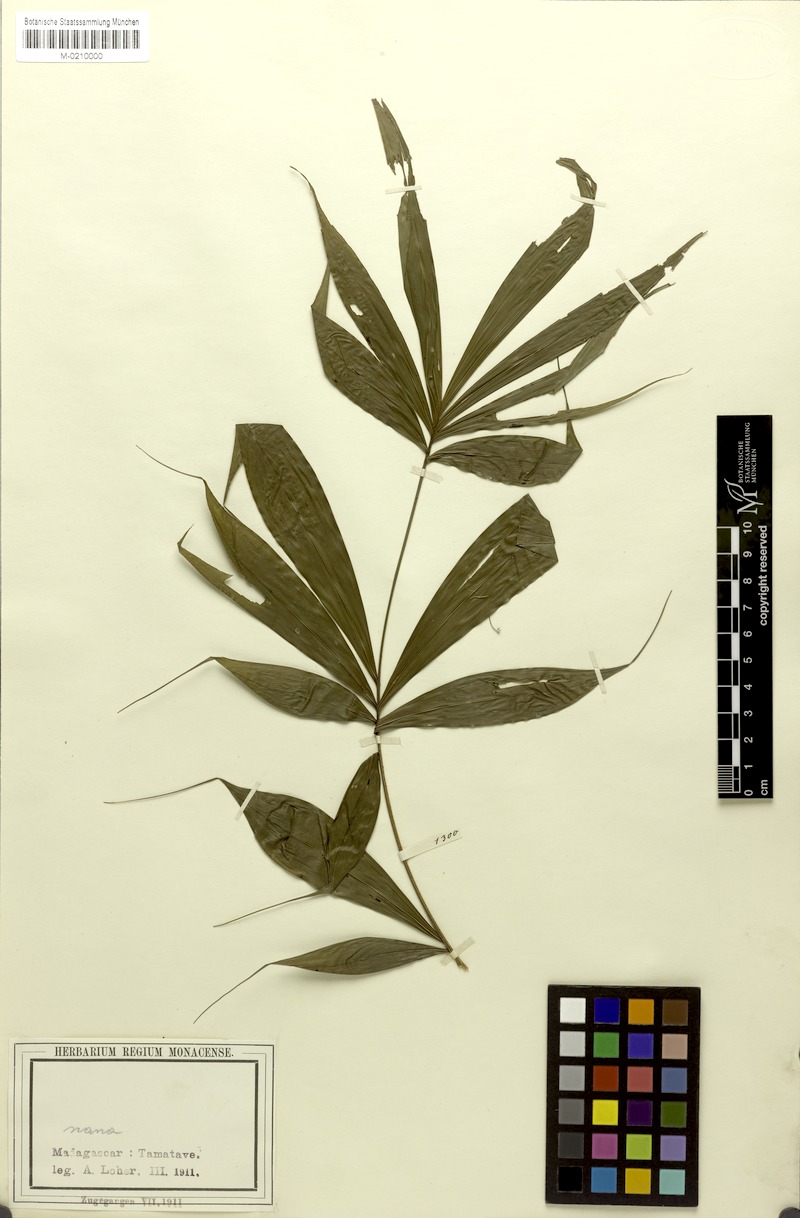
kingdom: Plantae
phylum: Tracheophyta
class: Liliopsida
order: Arecales
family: Arecaceae
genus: Dypsis
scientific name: Dypsis
